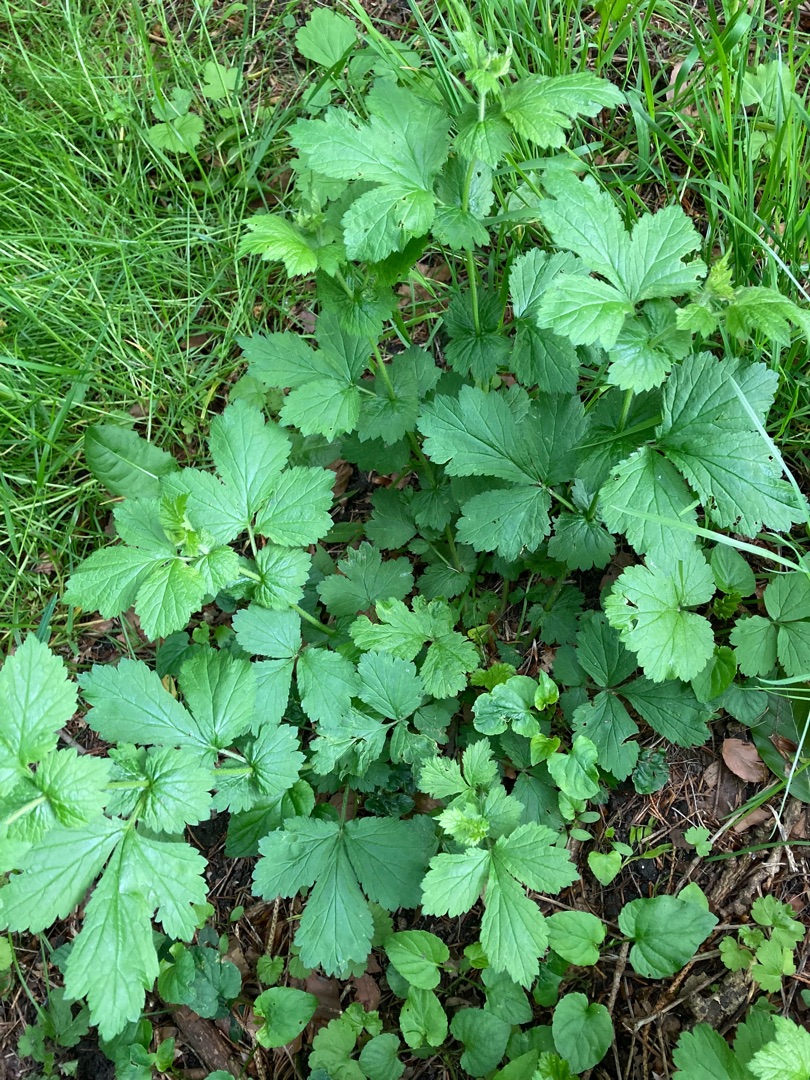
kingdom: Plantae
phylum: Tracheophyta
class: Magnoliopsida
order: Rosales
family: Rosaceae
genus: Geum
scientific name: Geum urbanum
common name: Feber-nellikerod
